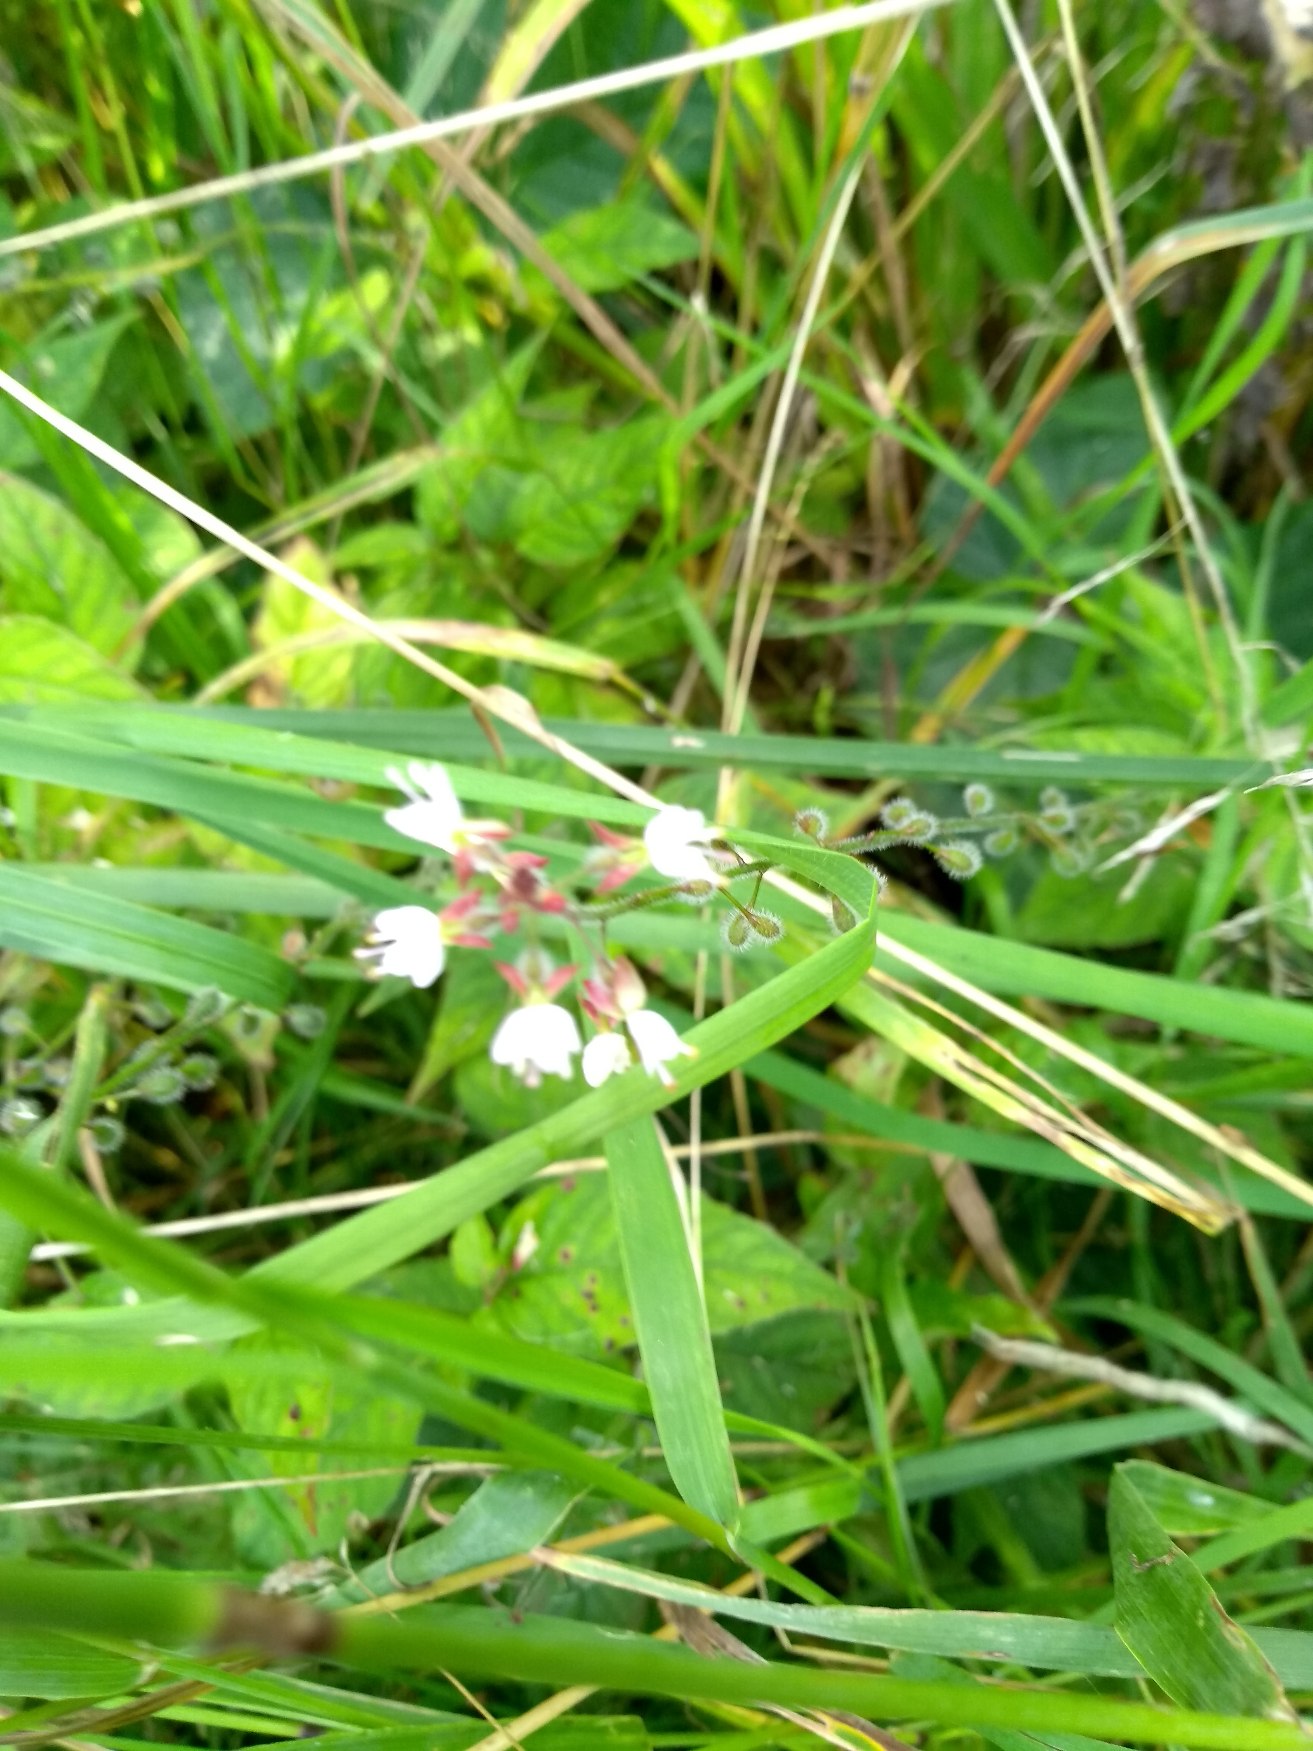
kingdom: Plantae
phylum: Tracheophyta
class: Magnoliopsida
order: Myrtales
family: Onagraceae
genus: Circaea
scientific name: Circaea lutetiana
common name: Dunet steffensurt
